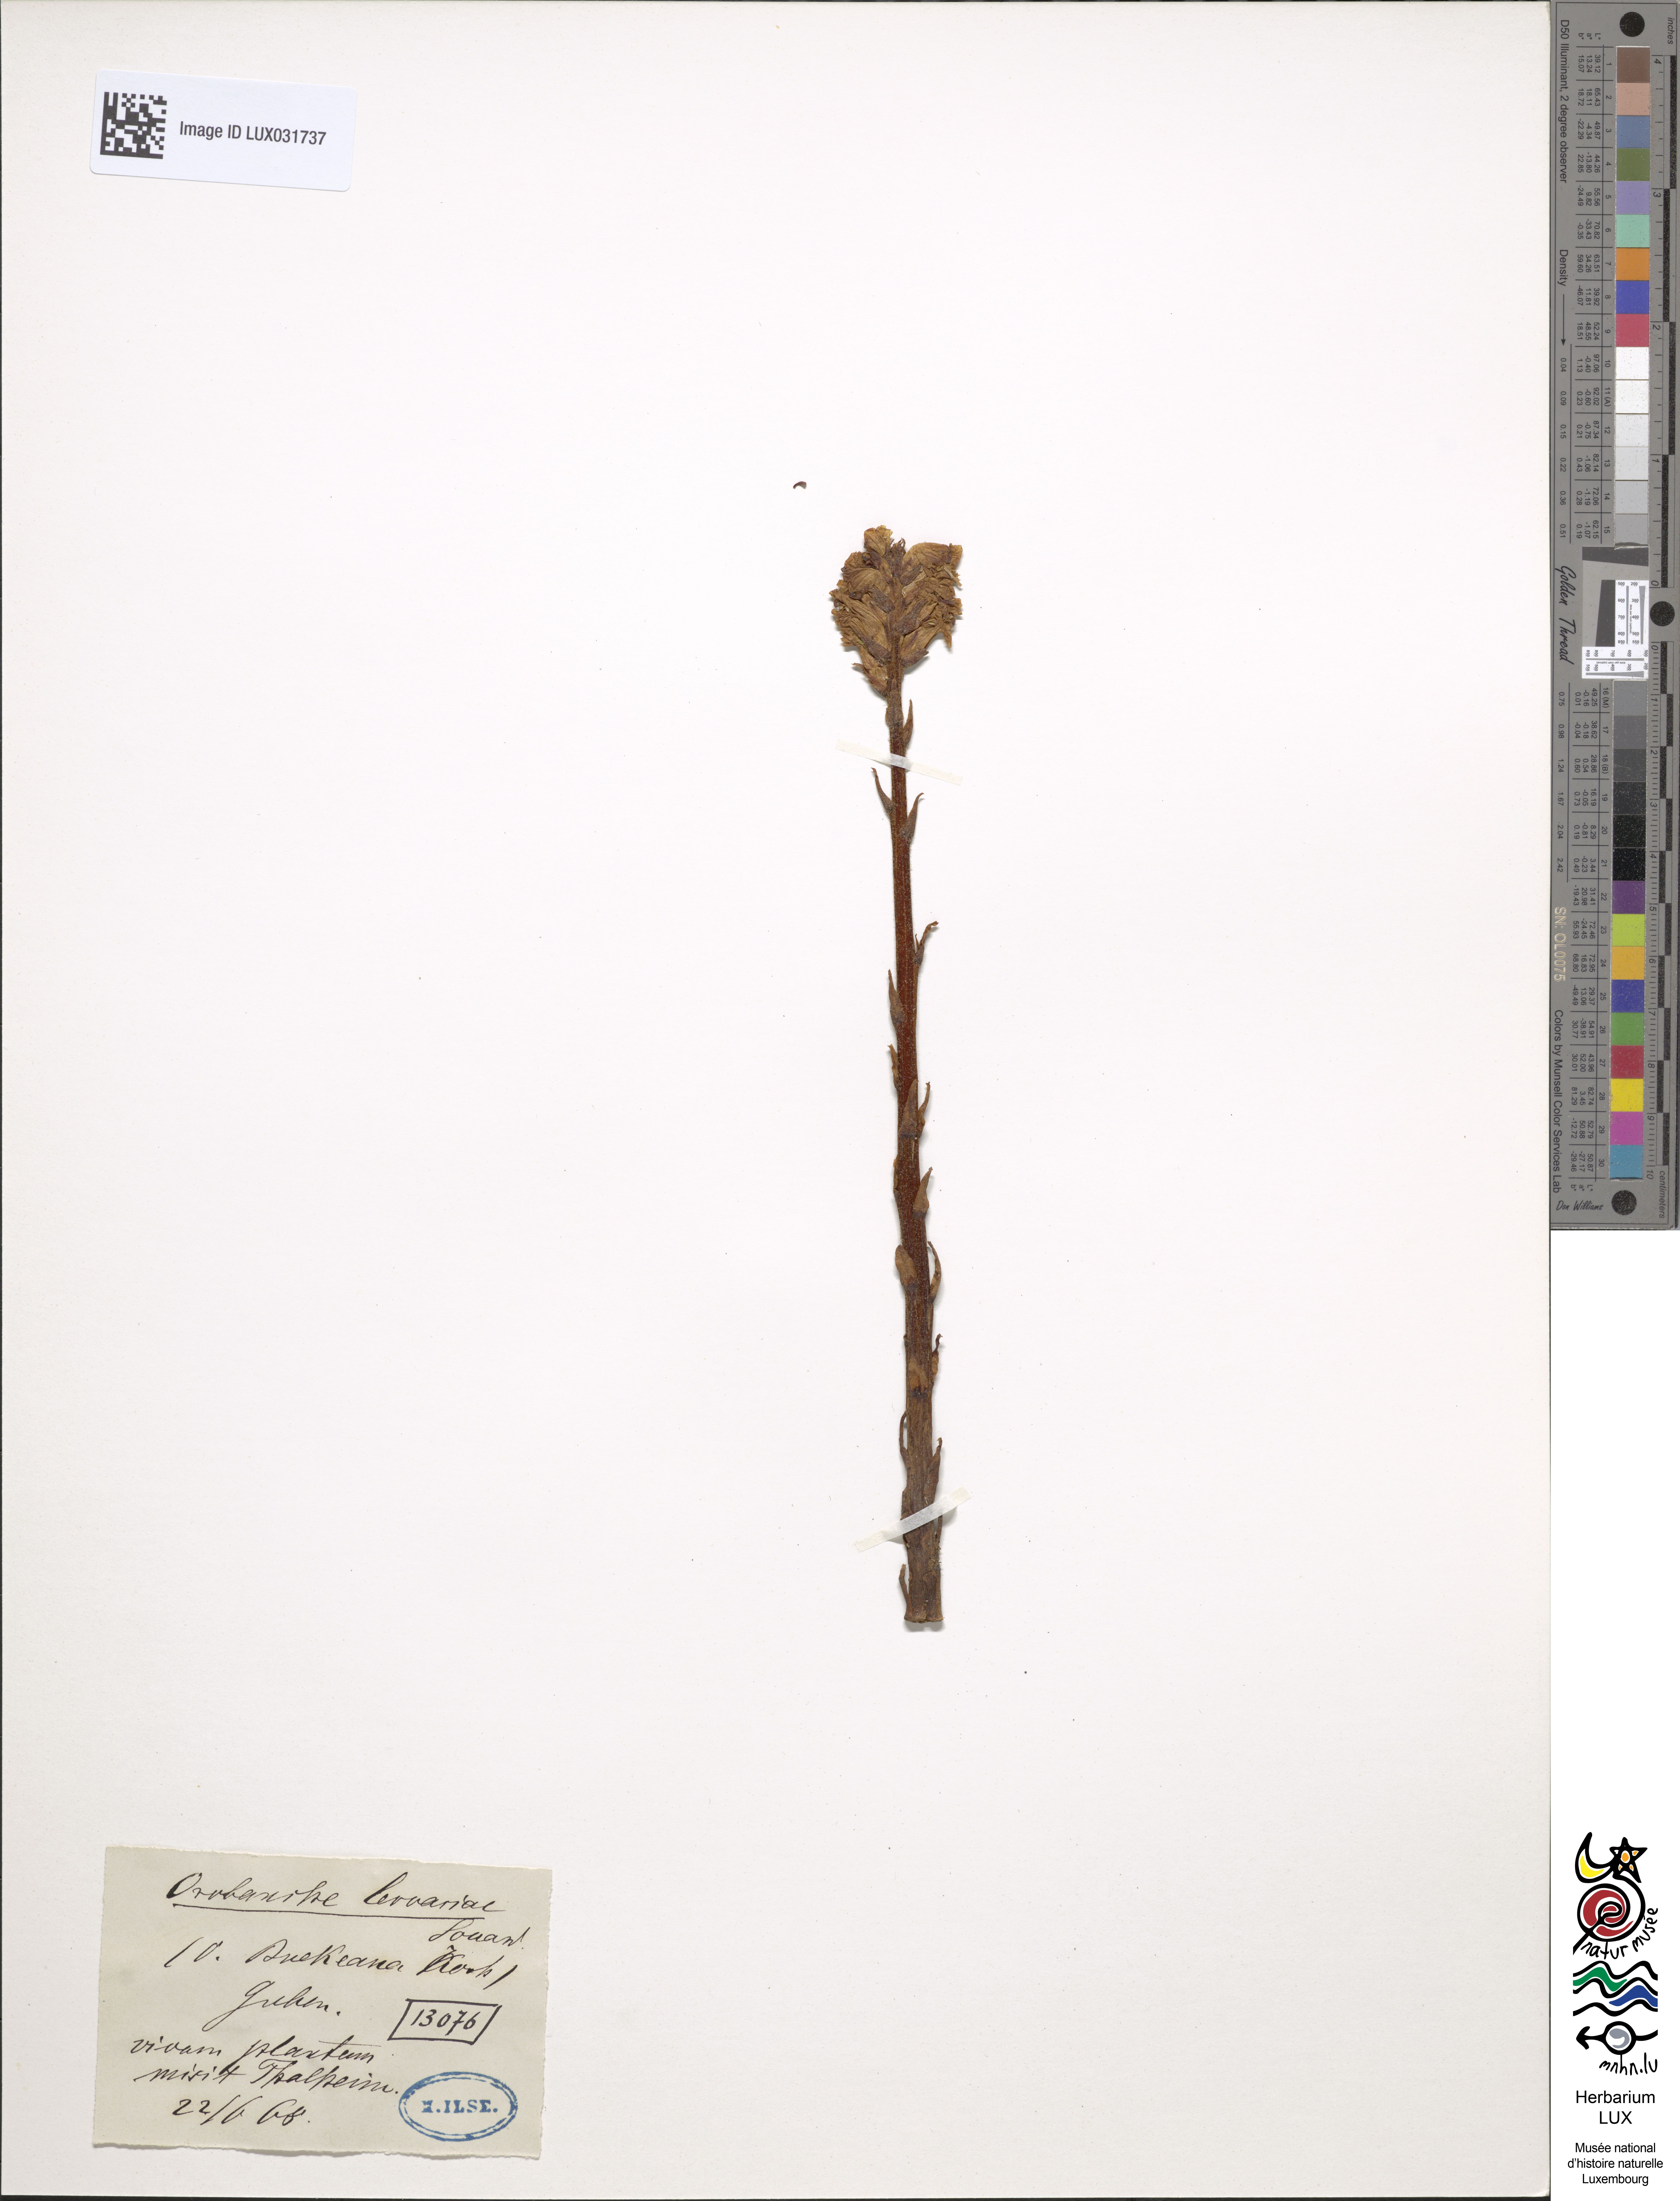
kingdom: Plantae
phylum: Tracheophyta
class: Magnoliopsida
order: Lamiales
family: Orobanchaceae
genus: Orobanche
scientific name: Orobanche alsatica
